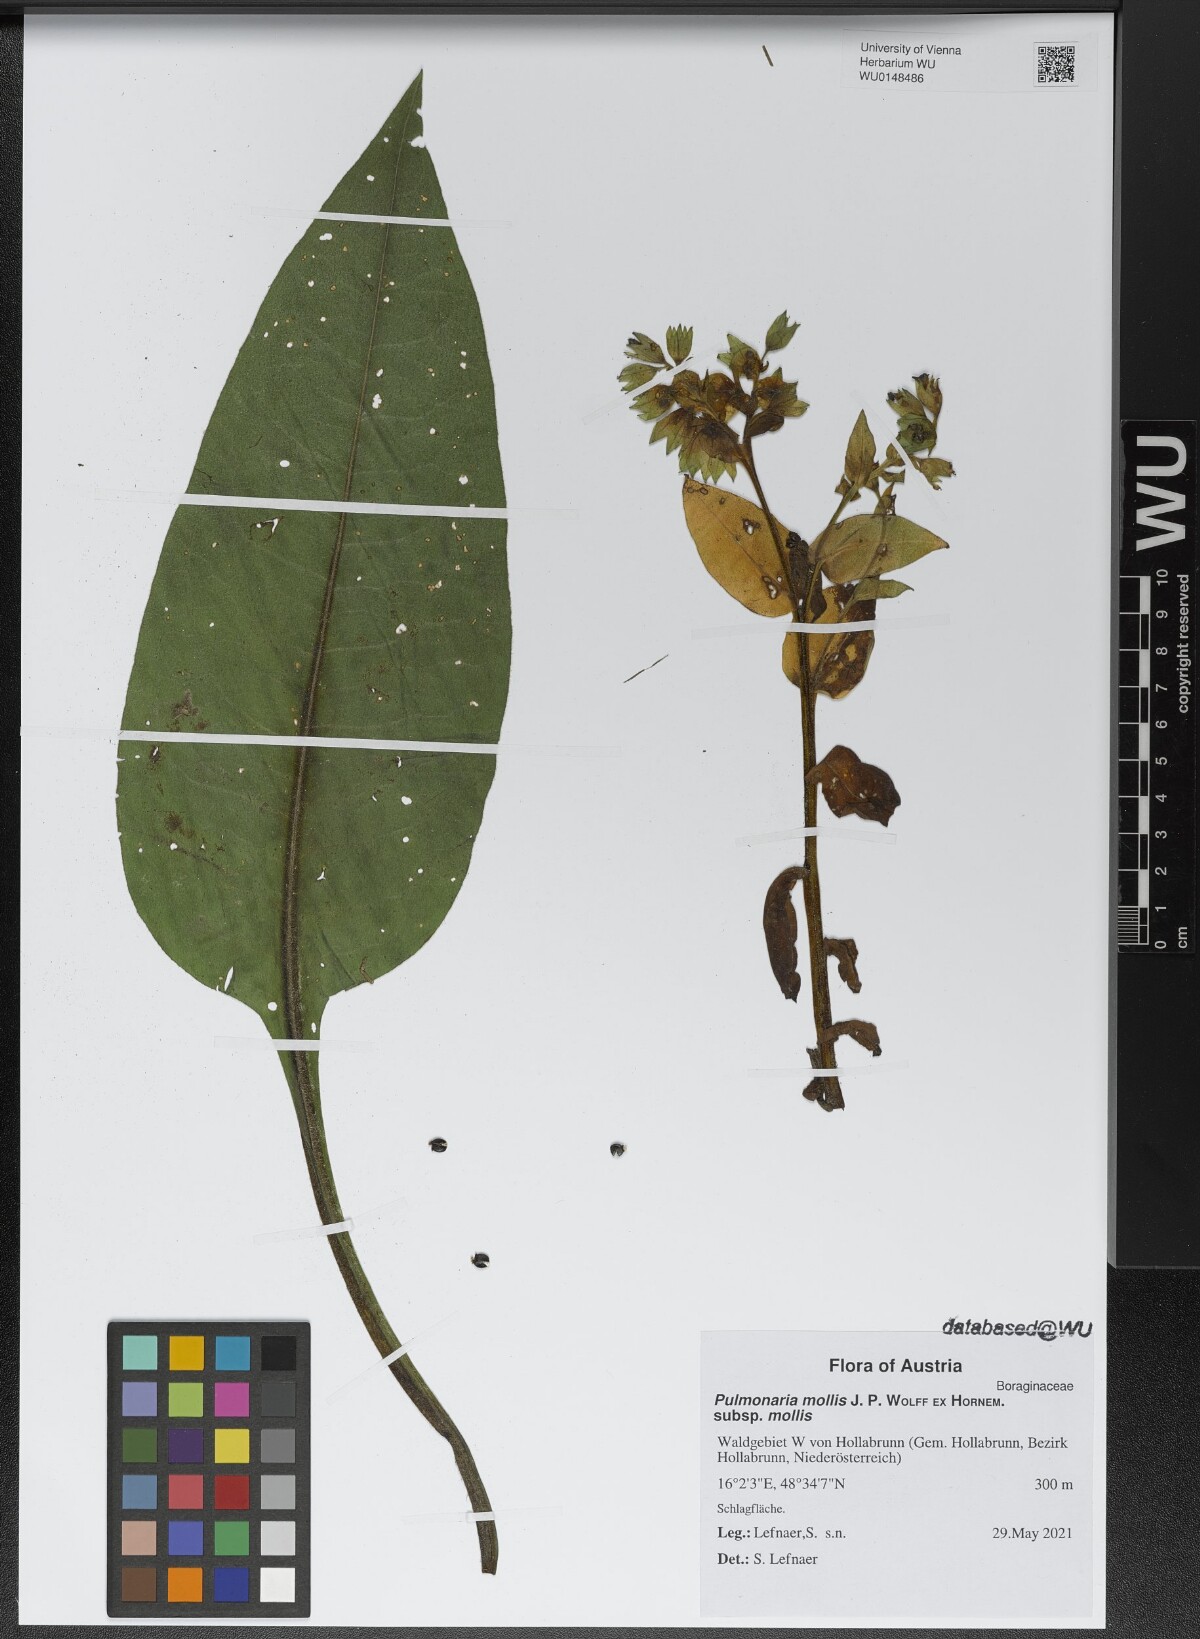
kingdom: Plantae
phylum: Tracheophyta
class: Magnoliopsida
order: Boraginales
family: Boraginaceae
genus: Pulmonaria
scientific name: Pulmonaria mollis
